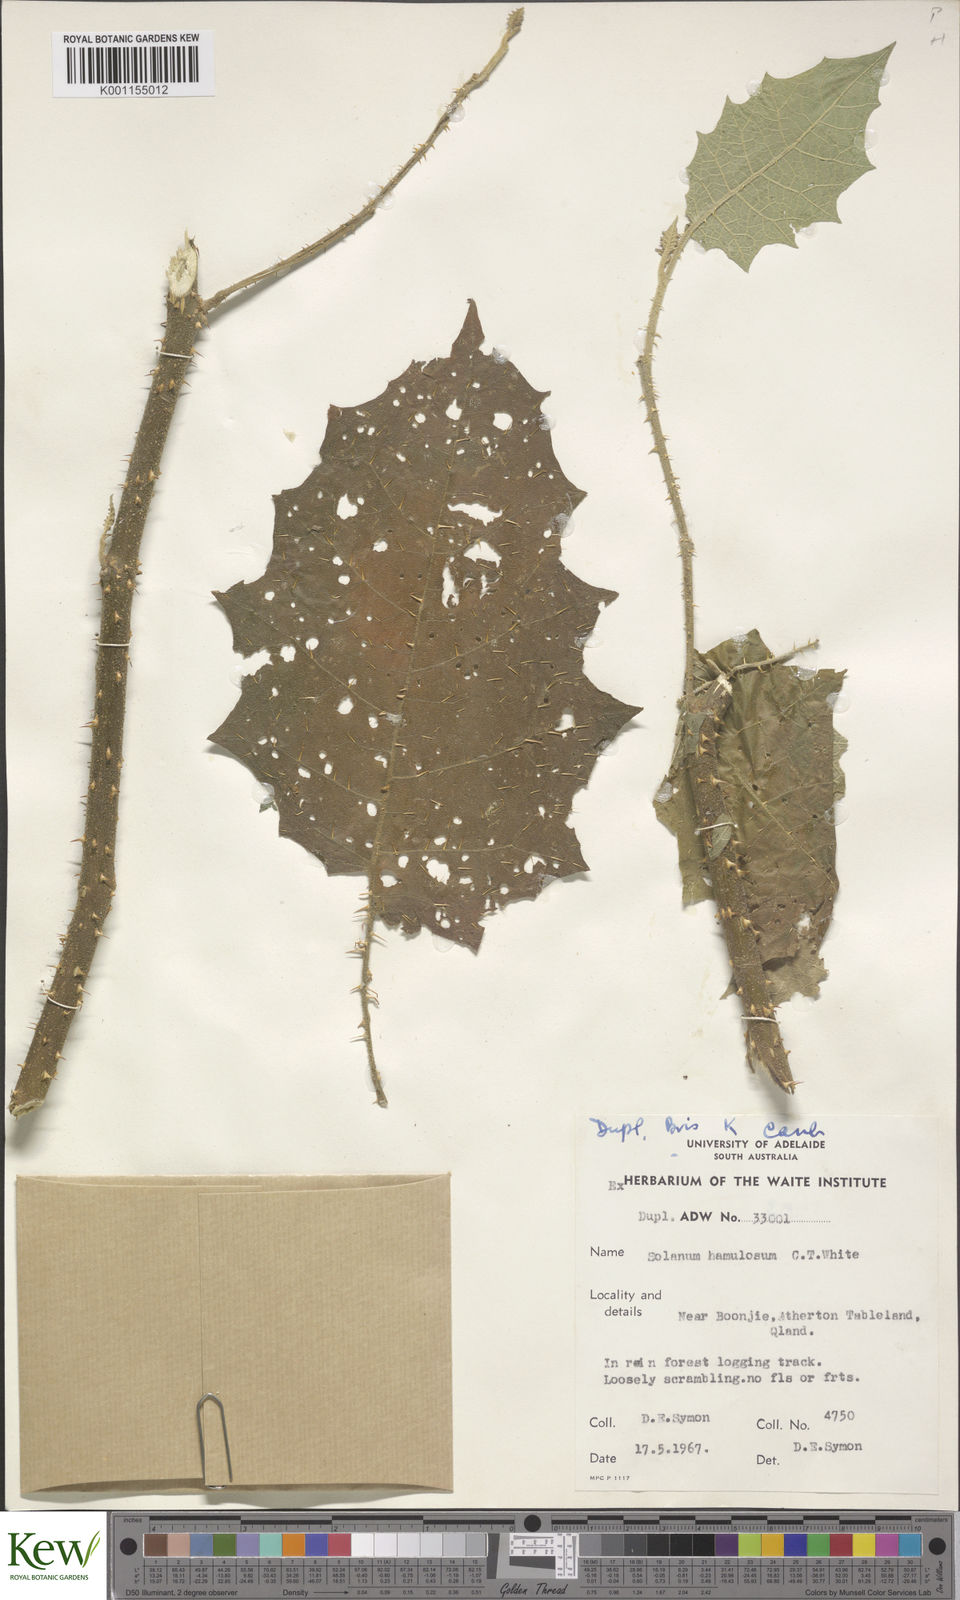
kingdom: Plantae
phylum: Tracheophyta
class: Magnoliopsida
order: Solanales
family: Solanaceae
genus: Solanum
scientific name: Solanum hamulosum
